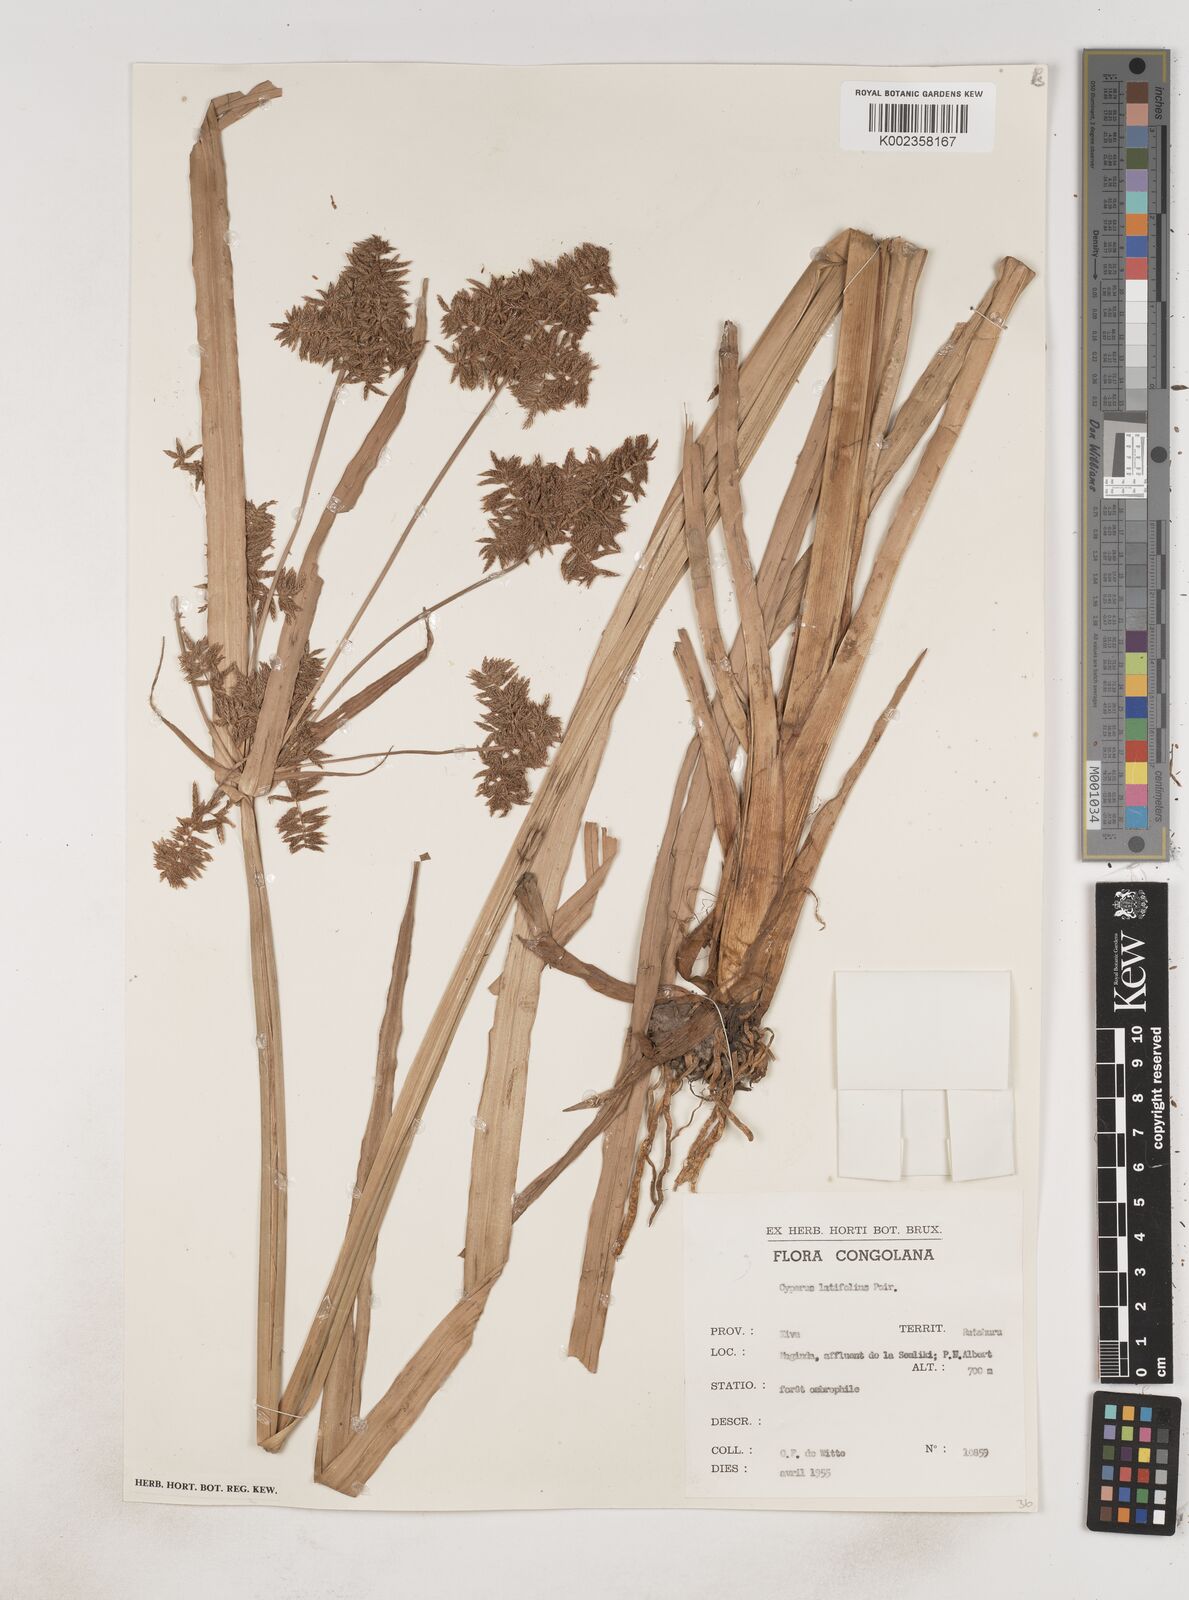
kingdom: Plantae
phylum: Tracheophyta
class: Liliopsida
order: Poales
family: Cyperaceae
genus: Cyperus
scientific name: Cyperus latifolius
